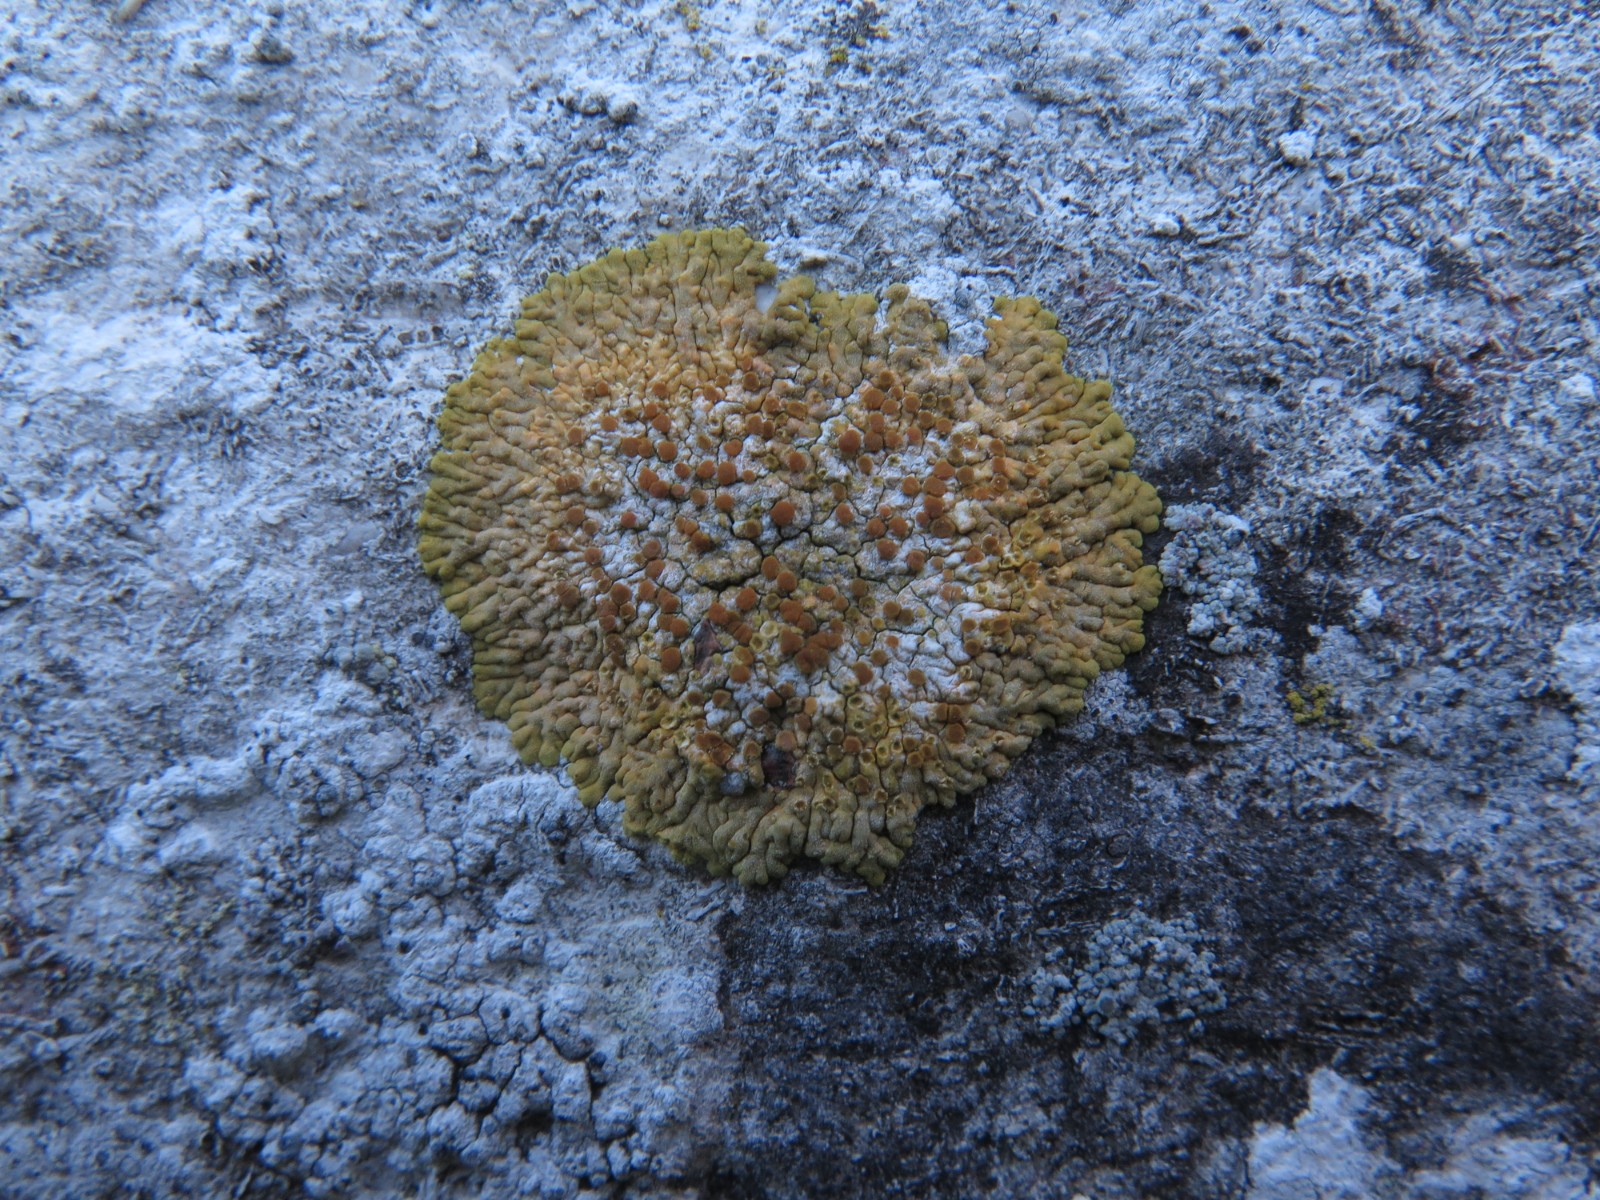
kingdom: Fungi
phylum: Ascomycota
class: Lecanoromycetes
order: Teloschistales
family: Teloschistaceae
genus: Variospora
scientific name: Variospora flavescens
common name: kalk-orangelav
